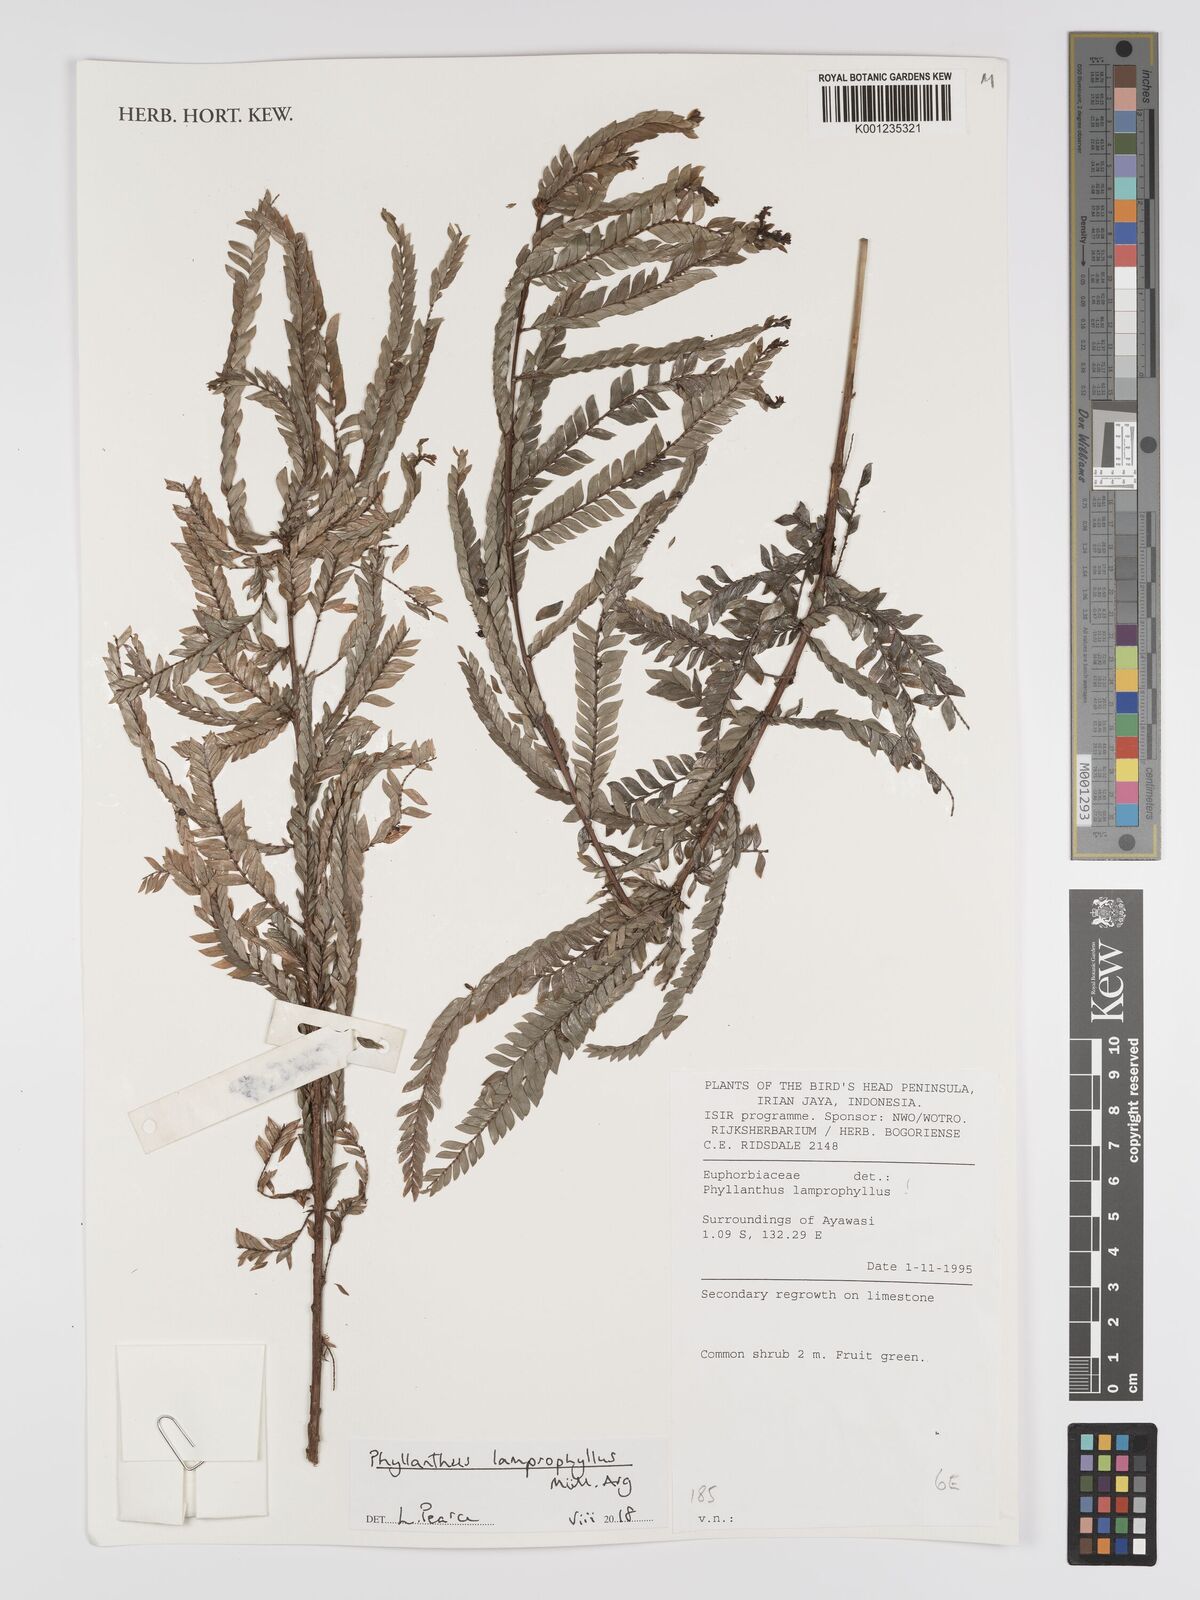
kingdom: Plantae
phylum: Tracheophyta
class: Magnoliopsida
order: Malpighiales
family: Phyllanthaceae
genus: Glochidion
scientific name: Glochidion lamprophyllum
